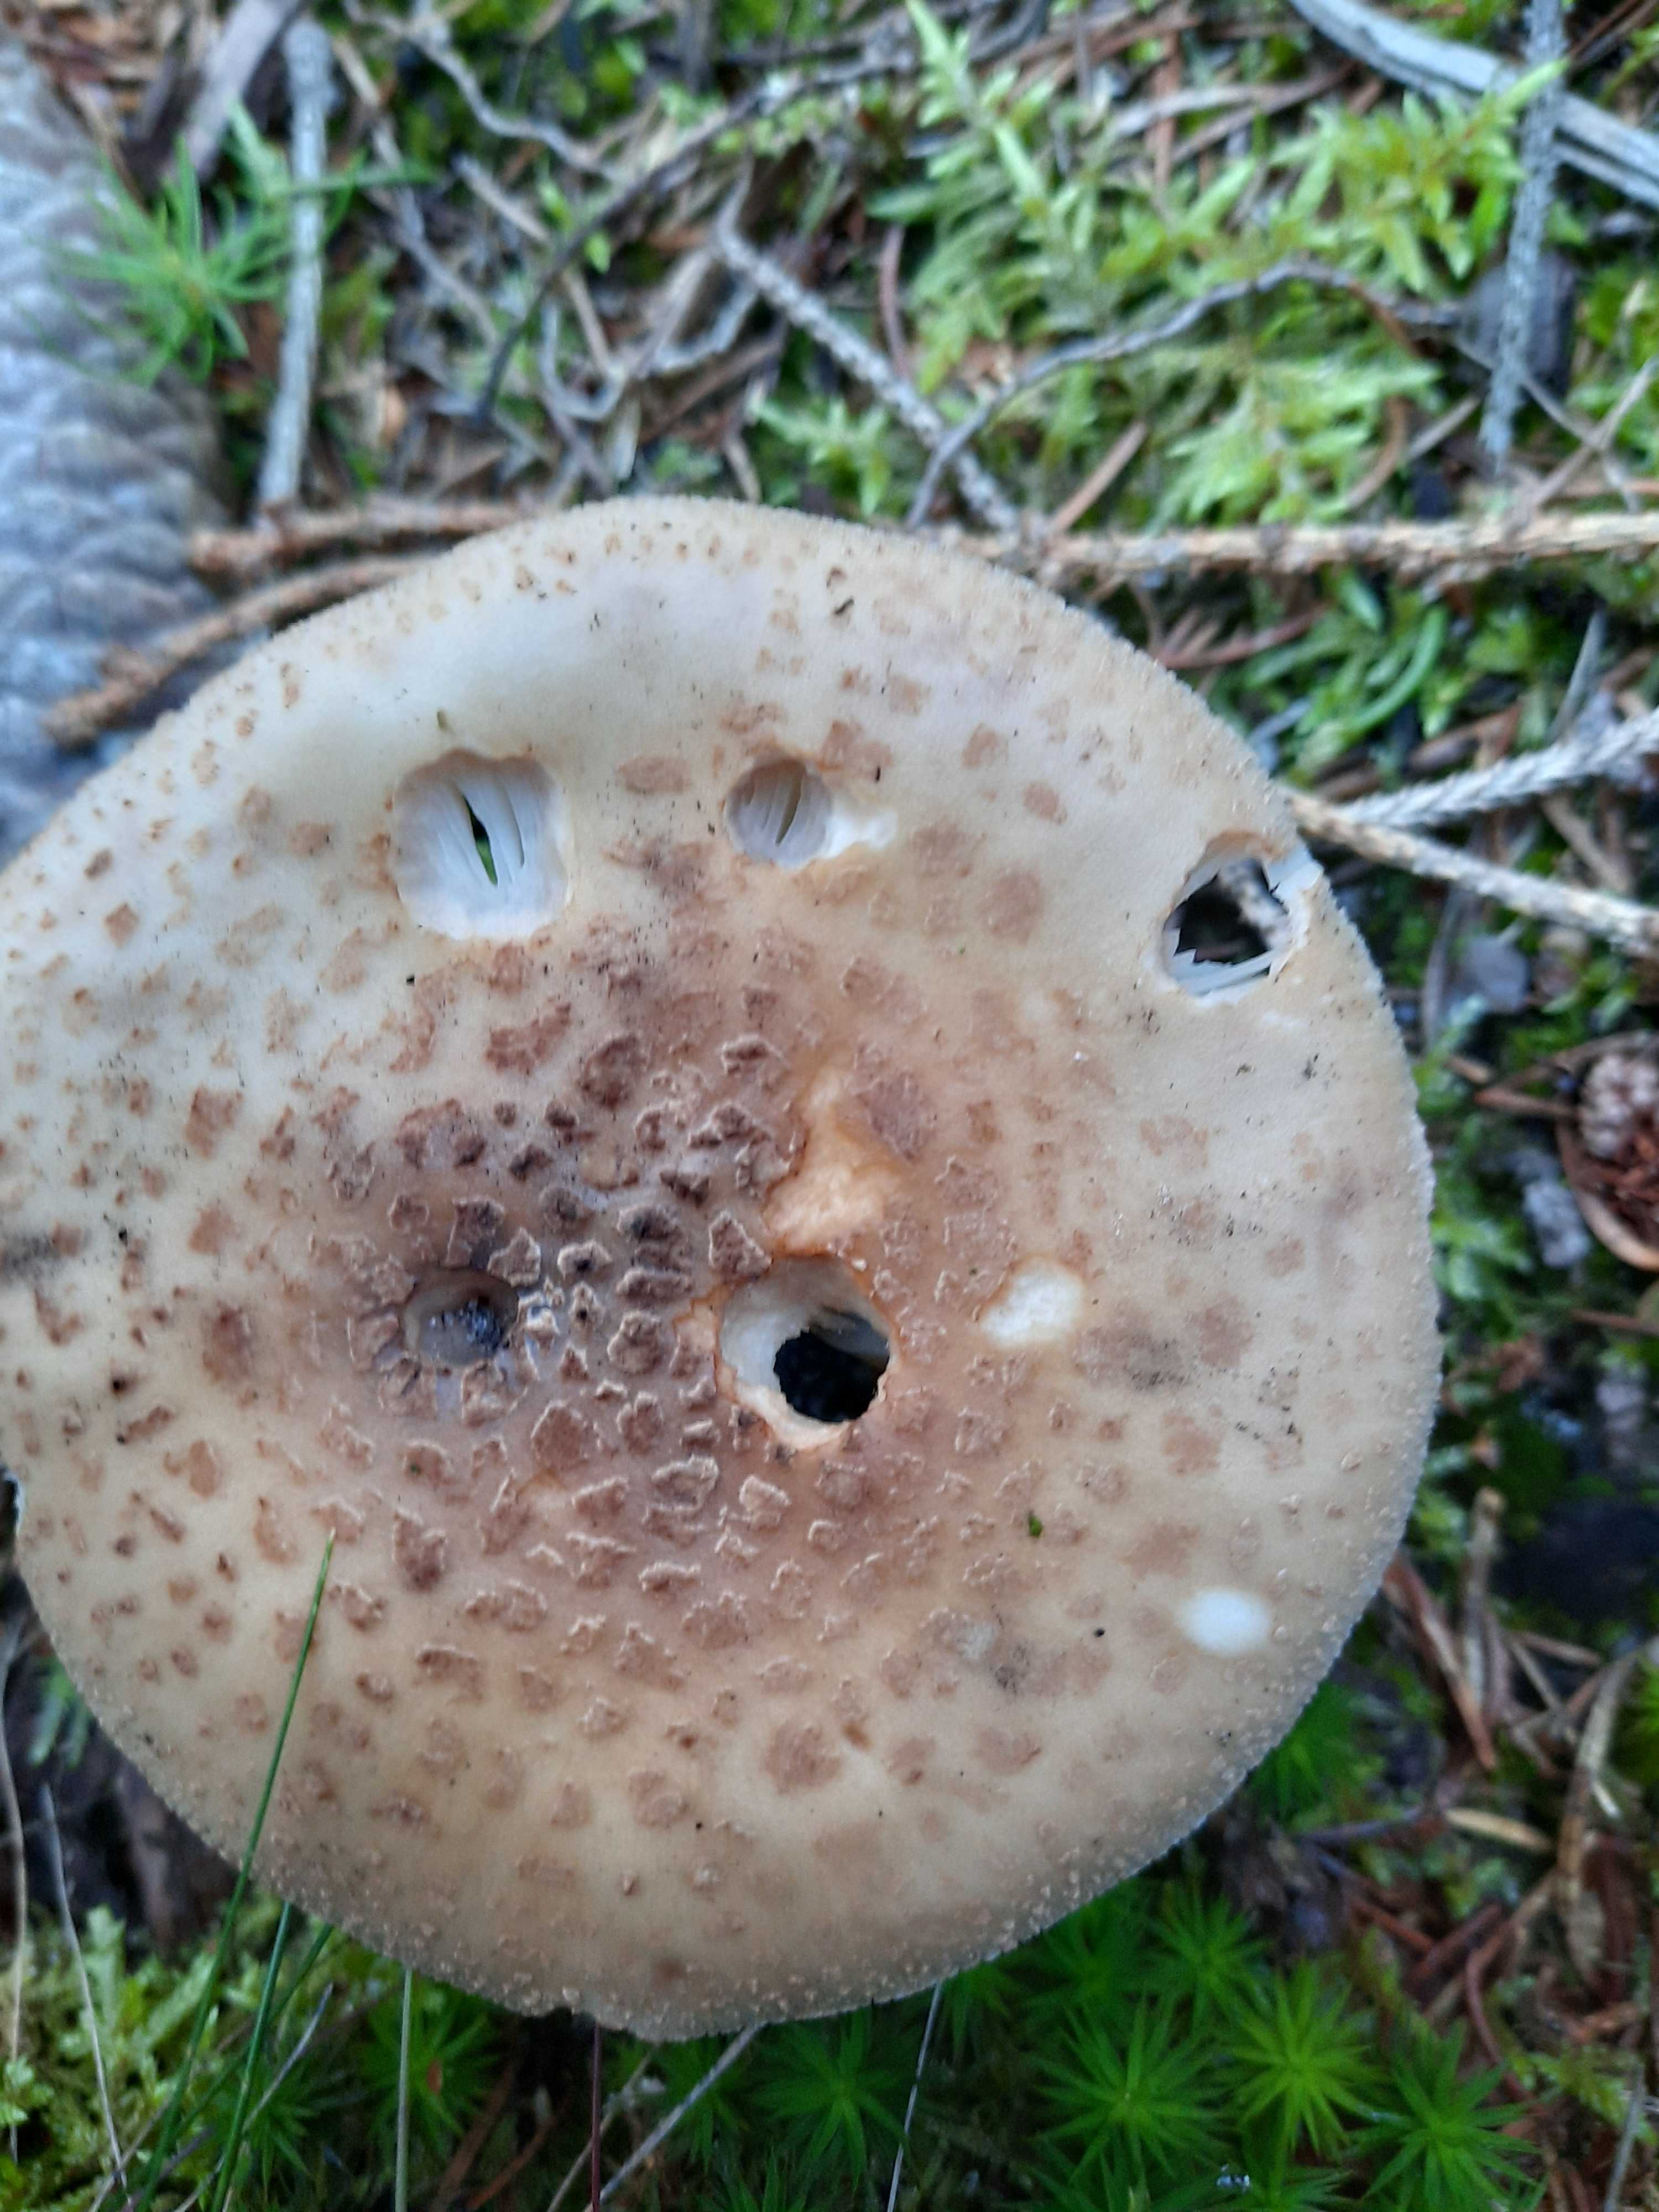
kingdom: Fungi
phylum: Basidiomycota
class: Agaricomycetes
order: Agaricales
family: Amanitaceae
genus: Amanita
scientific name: Amanita rubescens
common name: rødmende fluesvamp
